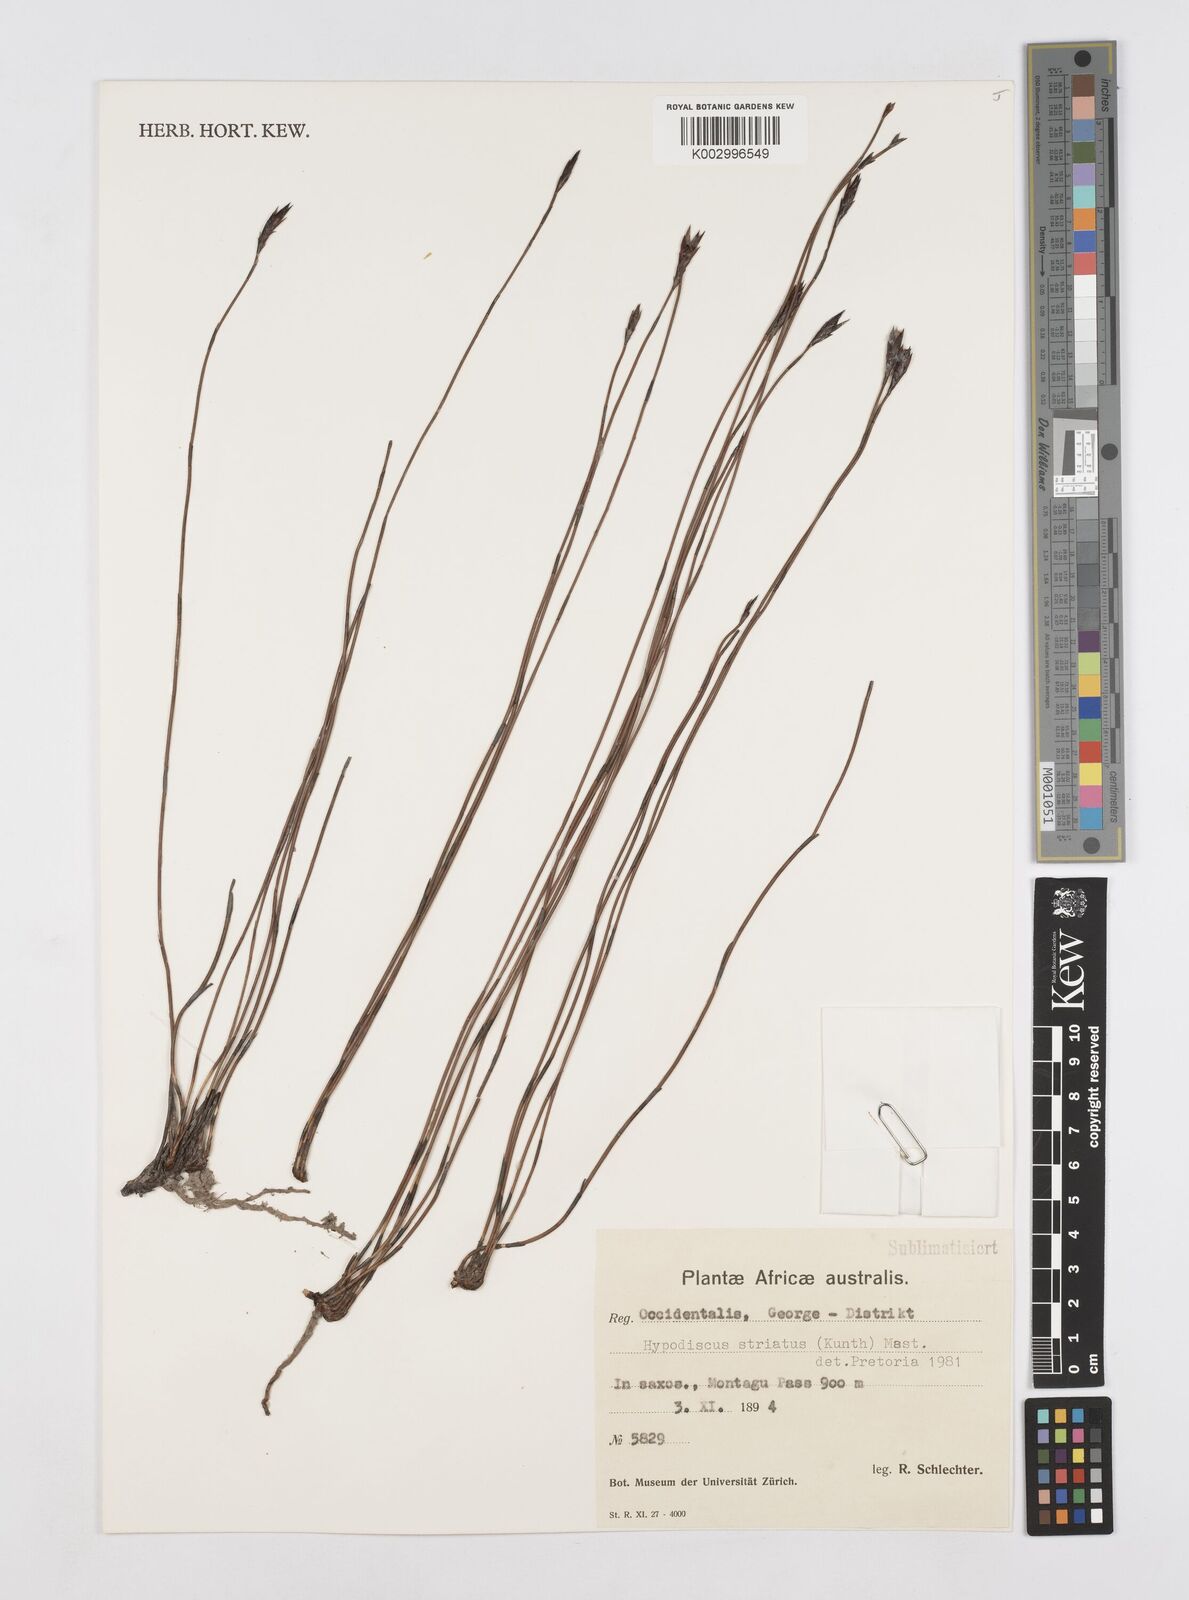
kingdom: Plantae
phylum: Tracheophyta
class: Liliopsida
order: Poales
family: Restionaceae
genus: Hypodiscus
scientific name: Hypodiscus striatus
